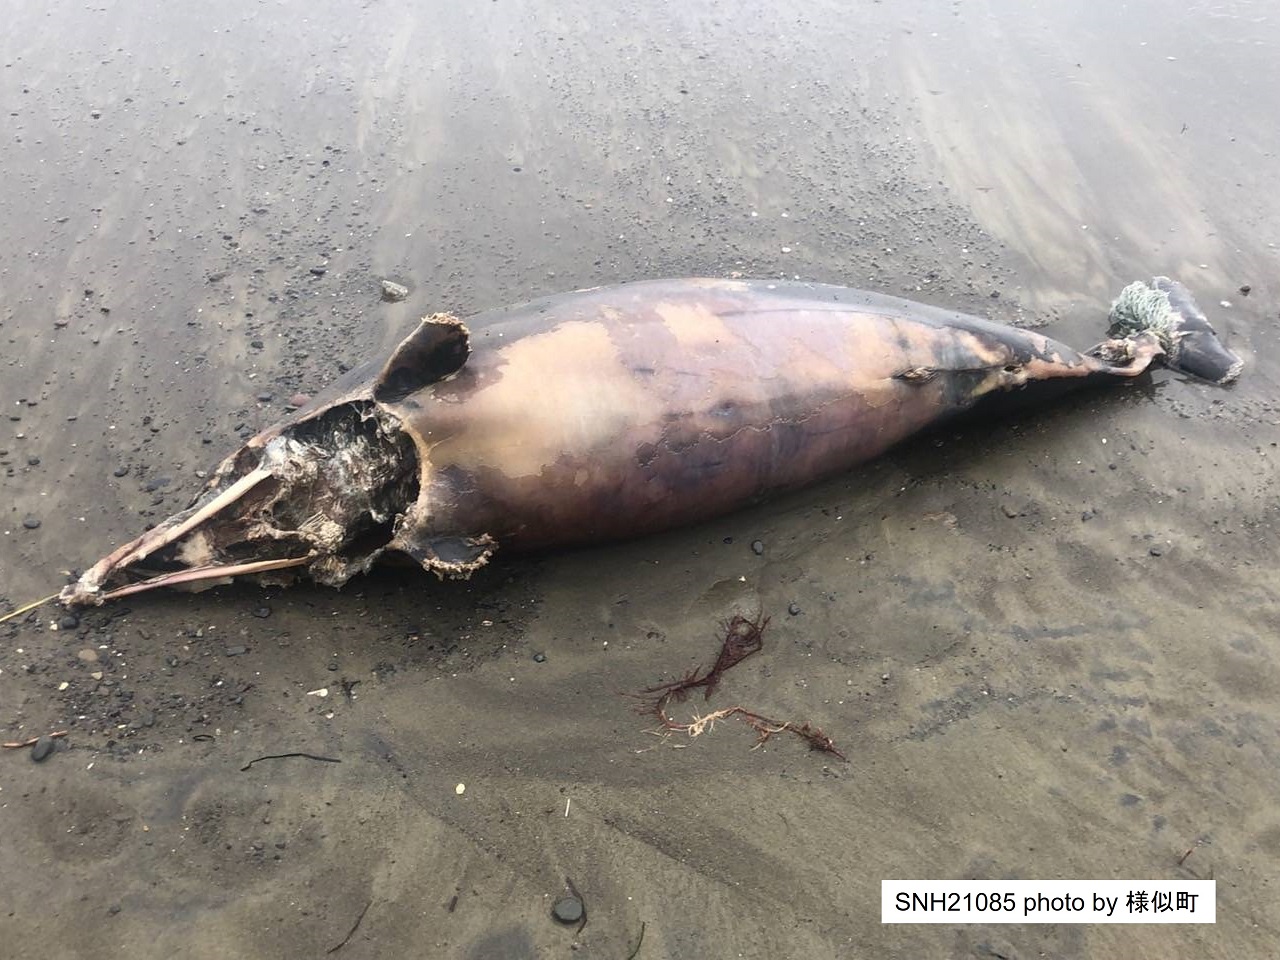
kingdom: Animalia
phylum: Chordata
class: Mammalia
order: Cetacea
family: Delphinidae
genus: Stenella
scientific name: Stenella coeruleoalba
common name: Striped dolphin
